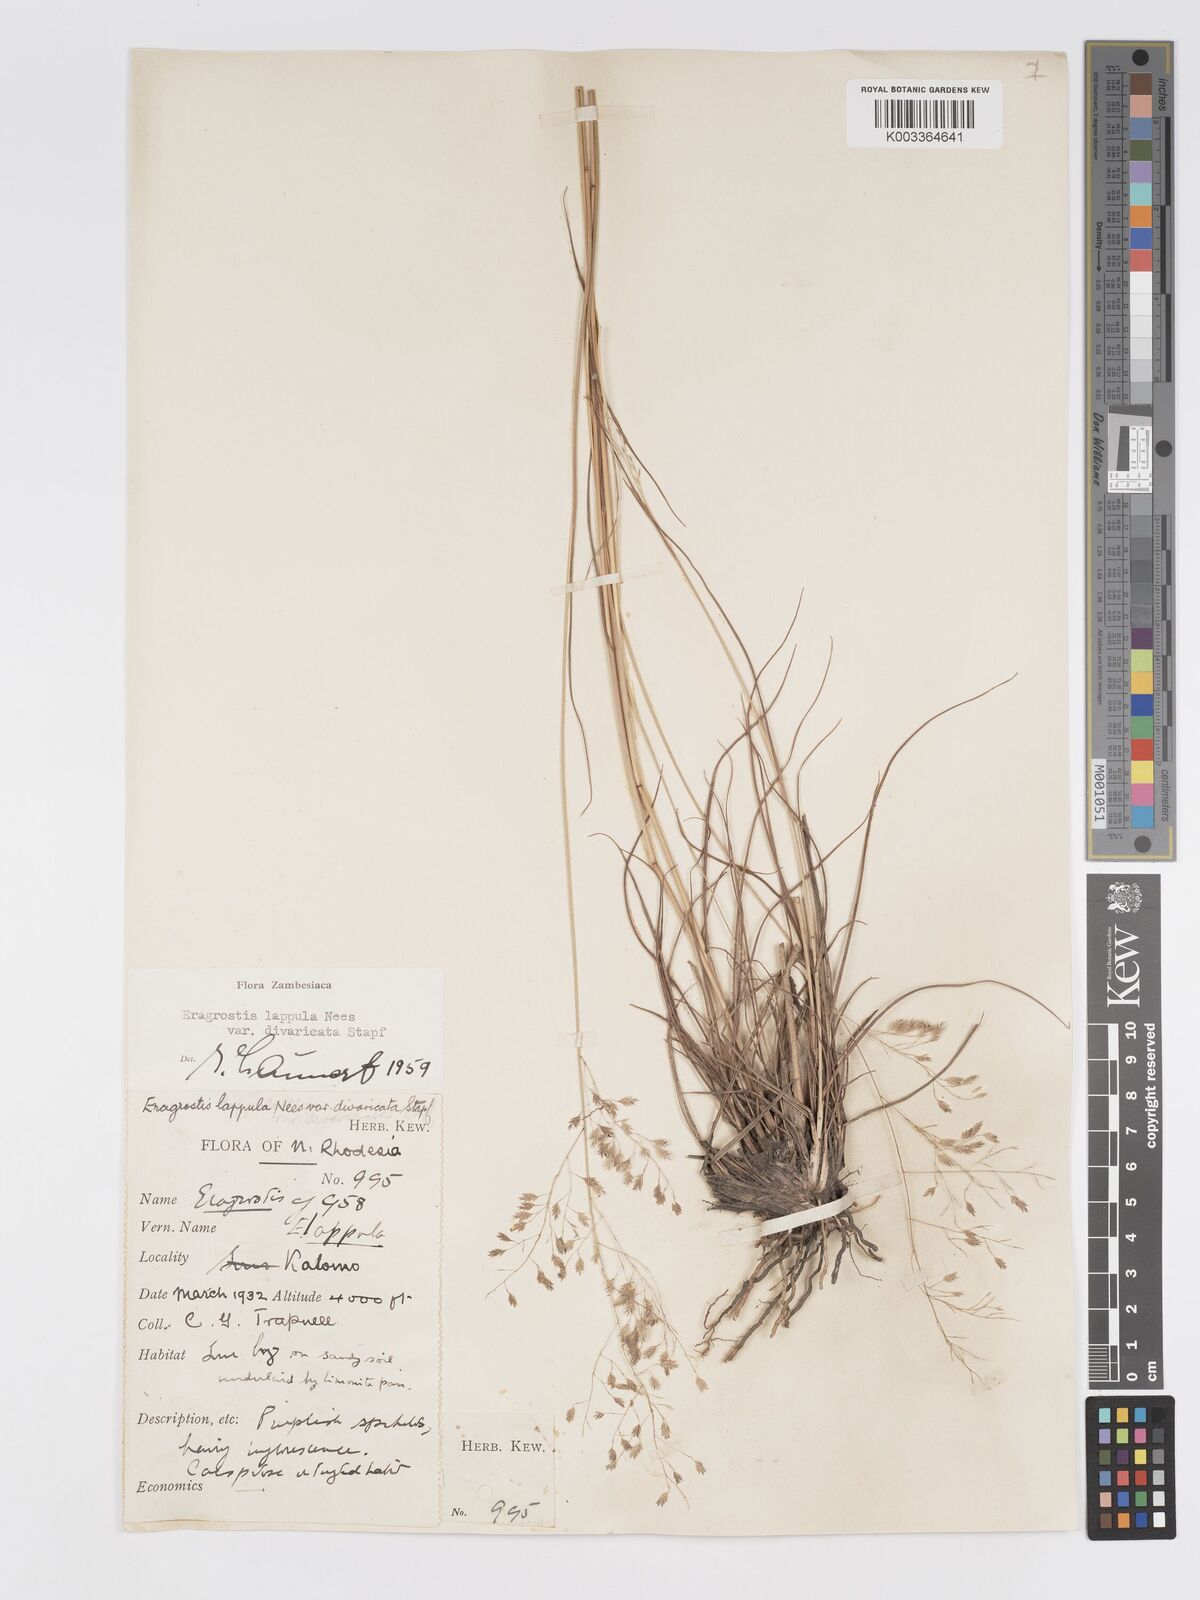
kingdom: Plantae
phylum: Tracheophyta
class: Liliopsida
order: Poales
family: Poaceae
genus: Eragrostis
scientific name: Eragrostis lappula
